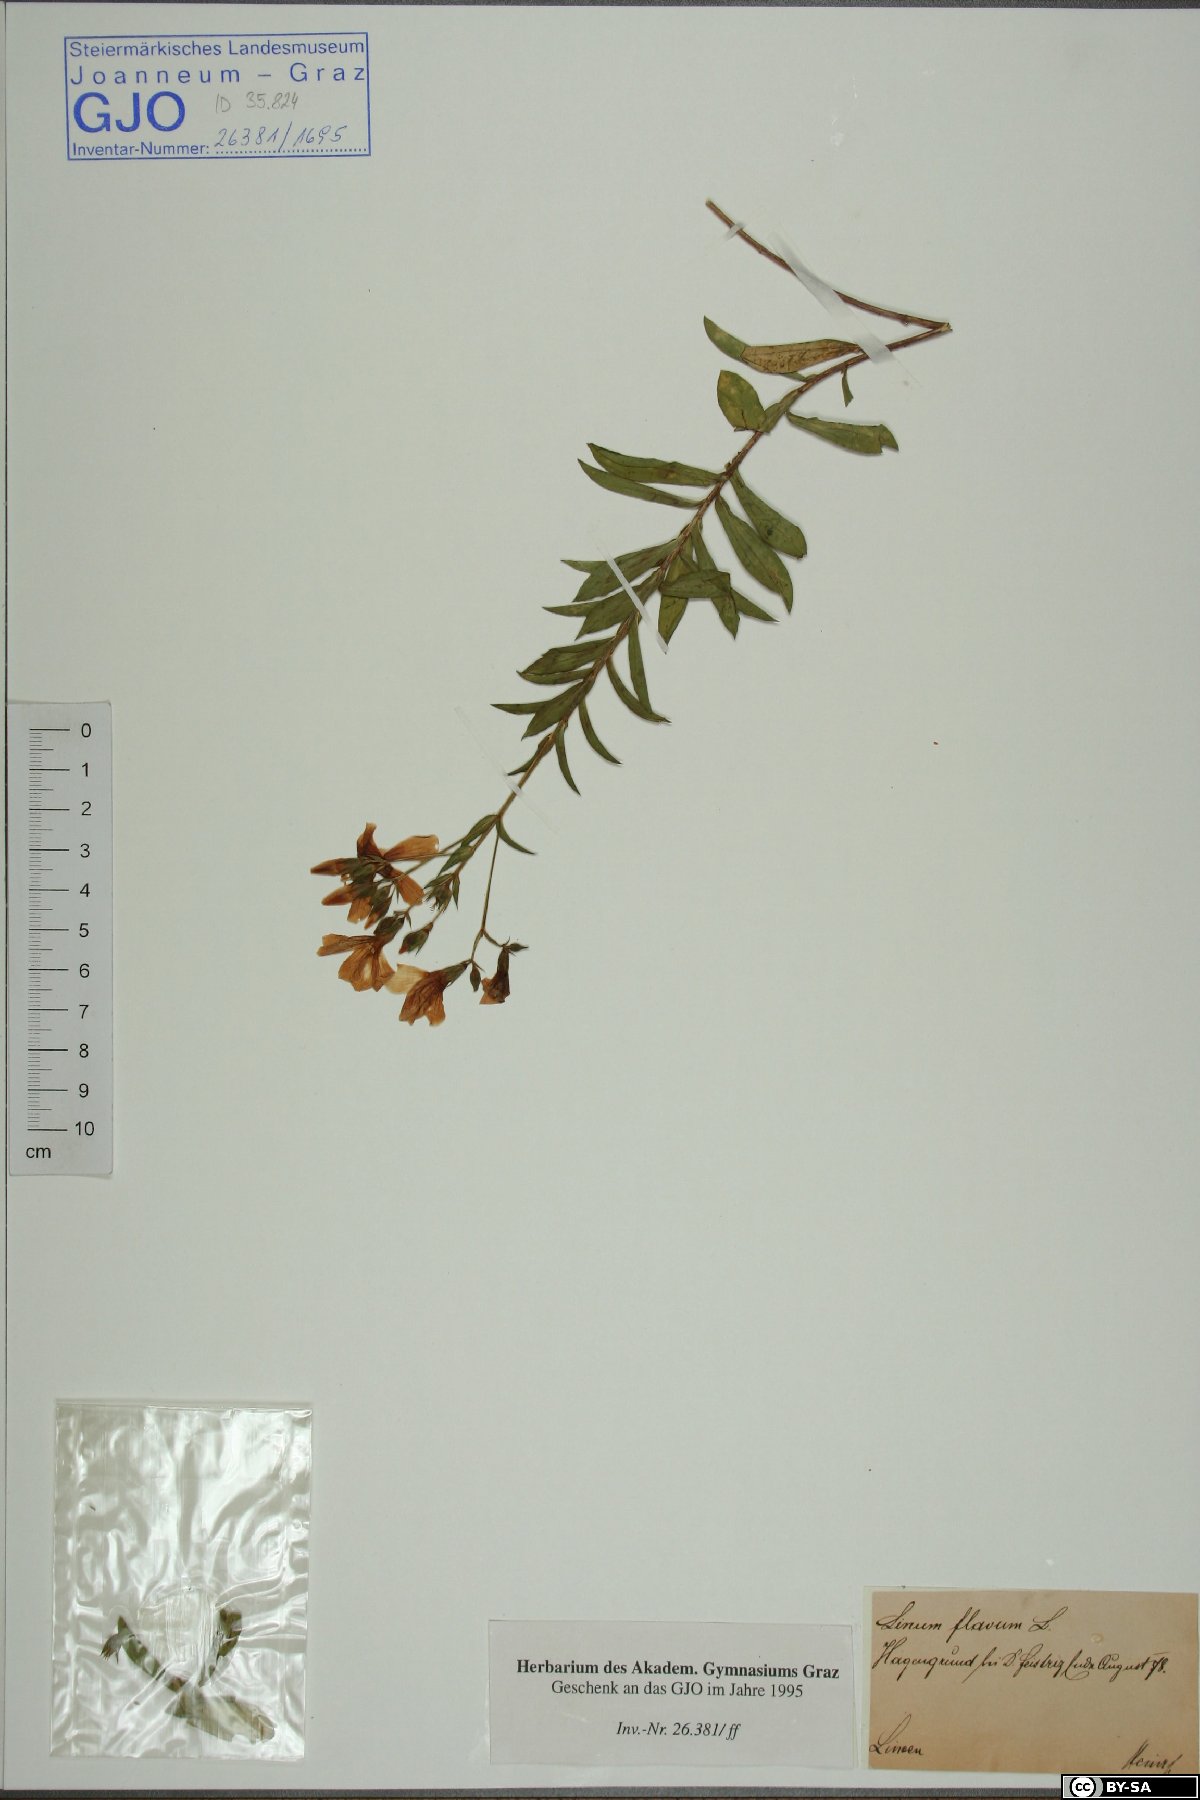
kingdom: Plantae
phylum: Tracheophyta
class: Magnoliopsida
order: Malpighiales
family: Linaceae
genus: Linum
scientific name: Linum flavum
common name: Yellow flax
